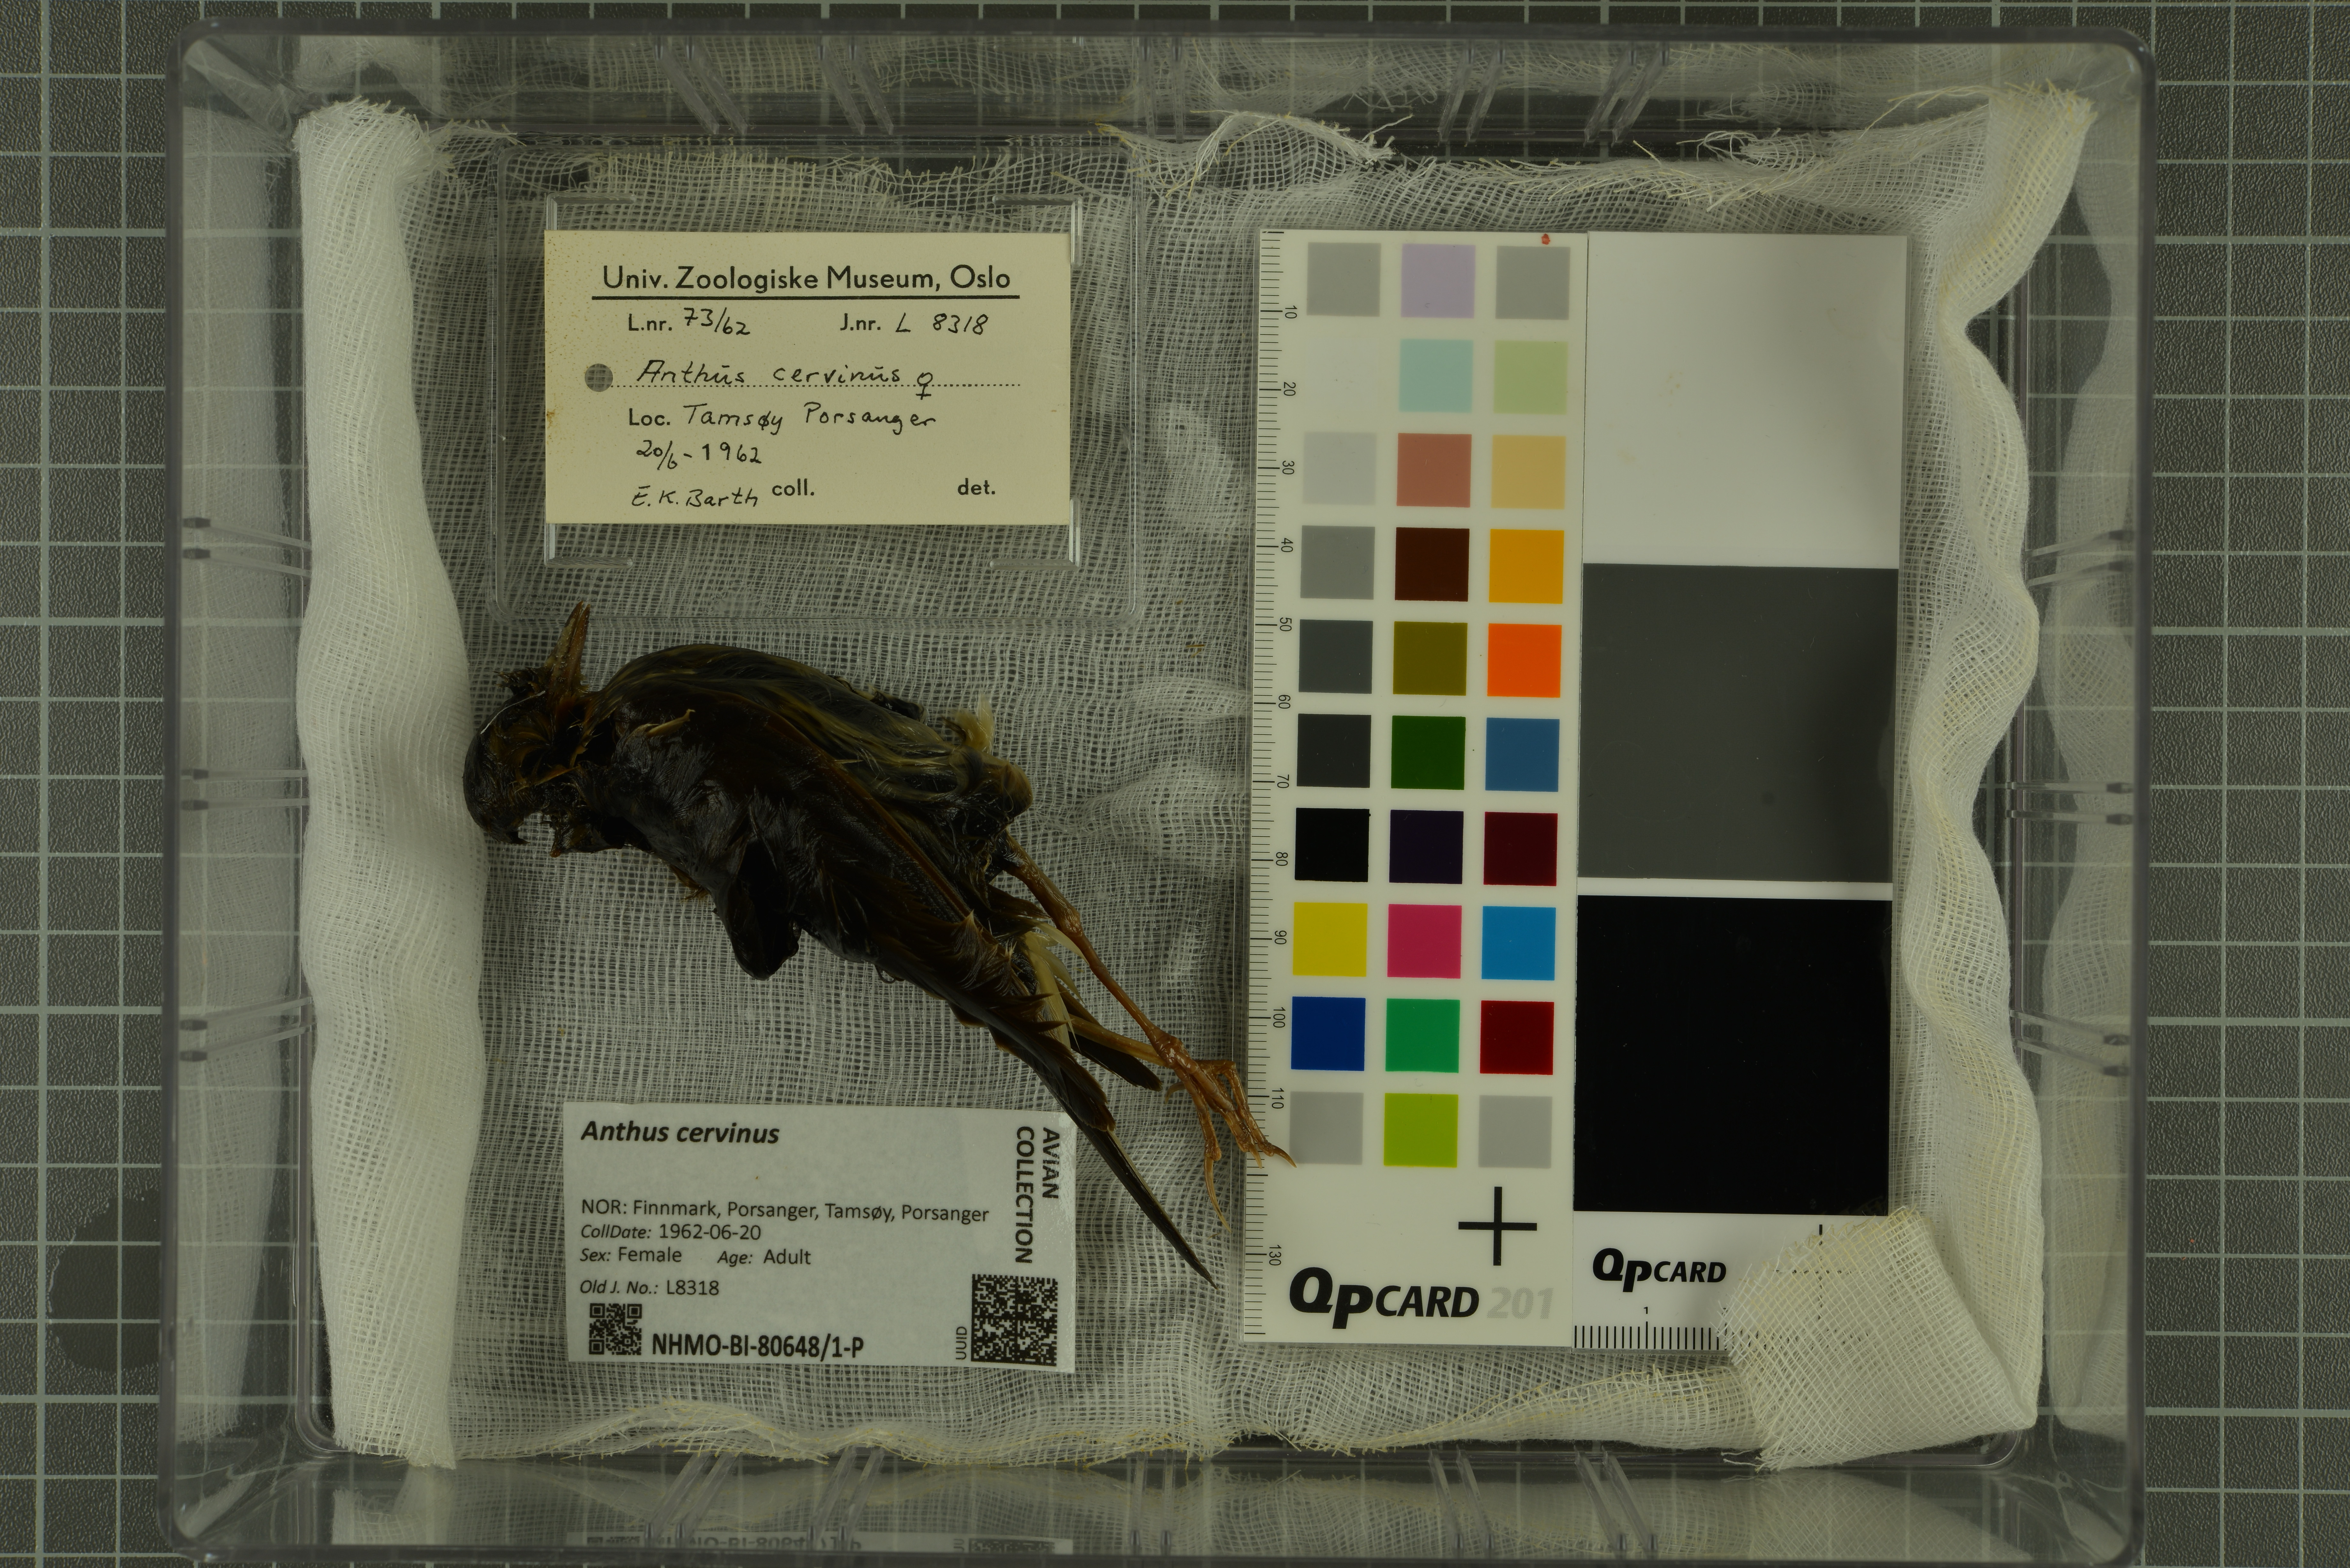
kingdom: Animalia
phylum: Chordata
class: Aves
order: Passeriformes
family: Motacillidae
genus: Anthus
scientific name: Anthus cervinus
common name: Red-throated pipit
